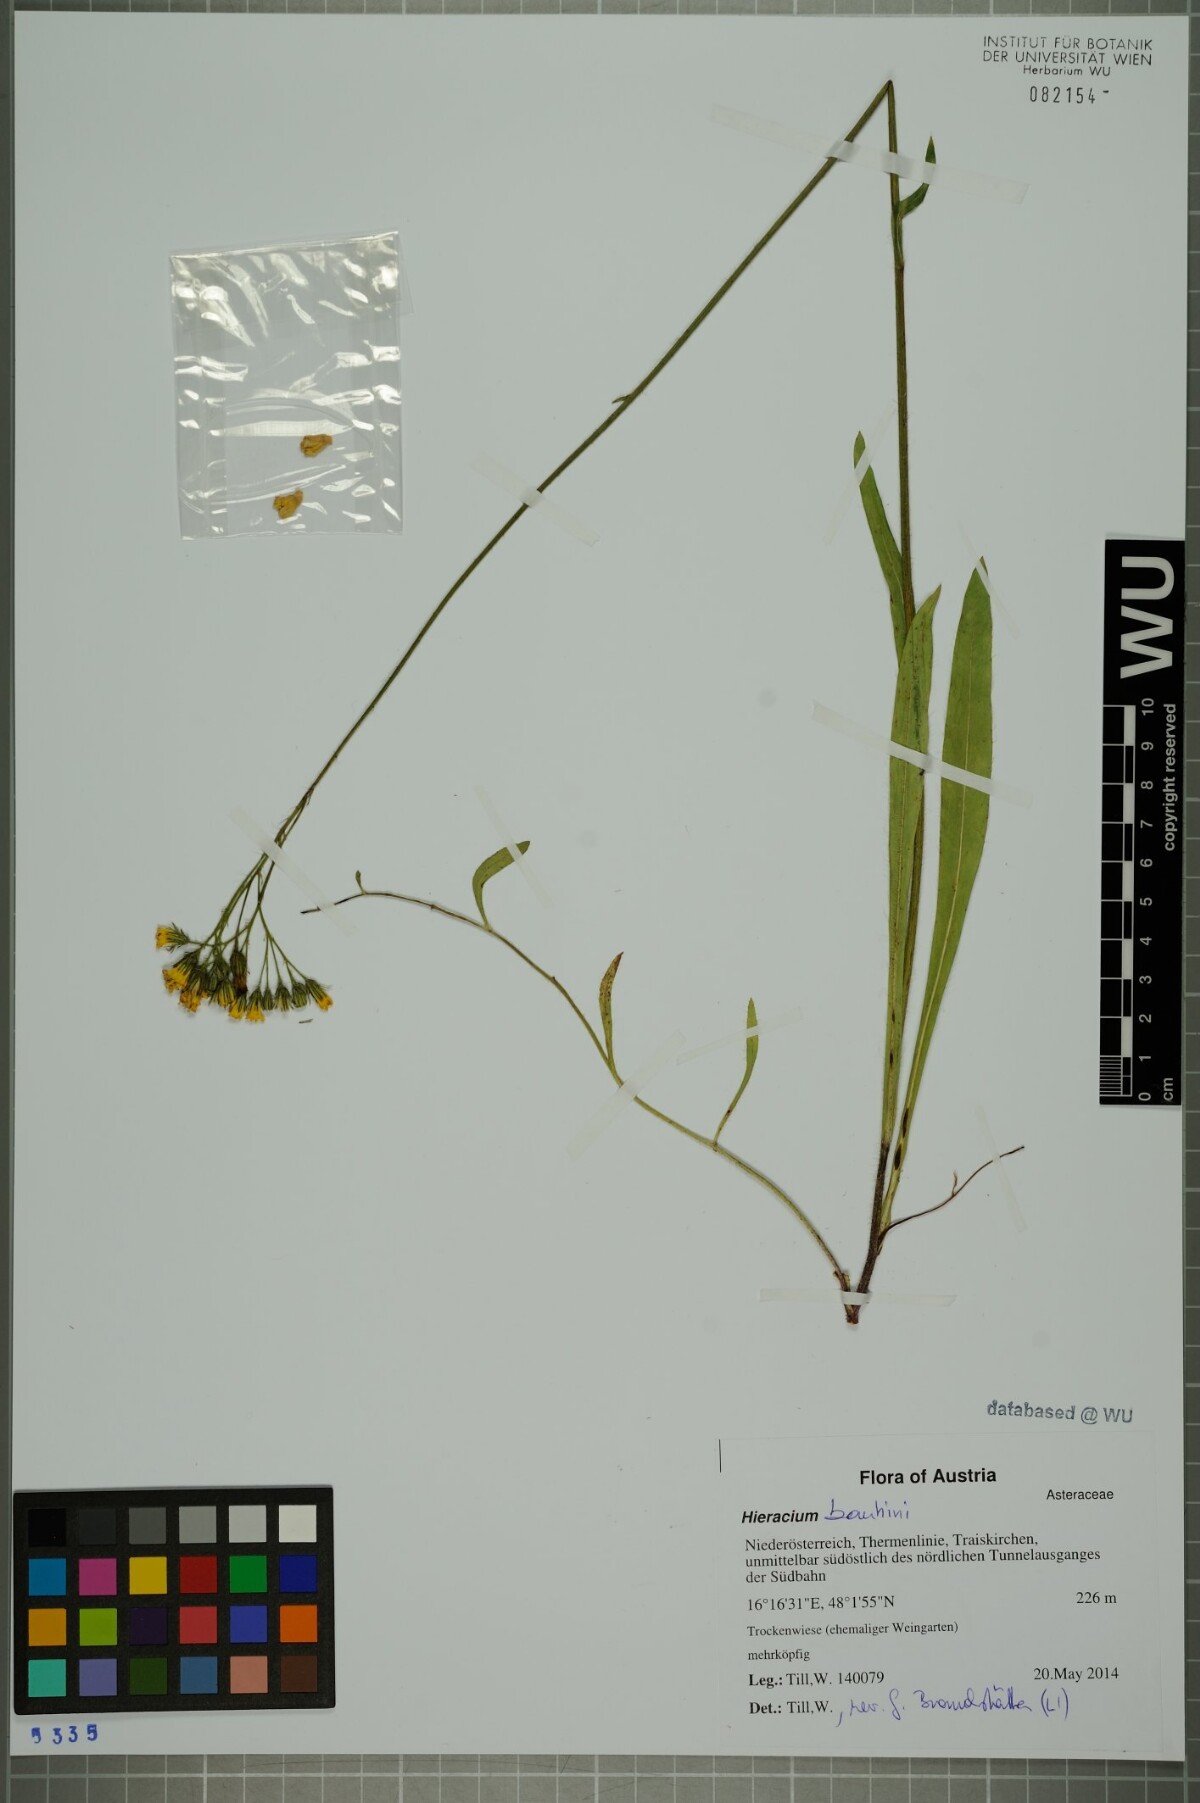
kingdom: Plantae
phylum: Tracheophyta
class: Magnoliopsida
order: Asterales
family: Asteraceae
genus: Pilosella
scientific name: Pilosella bauhini
